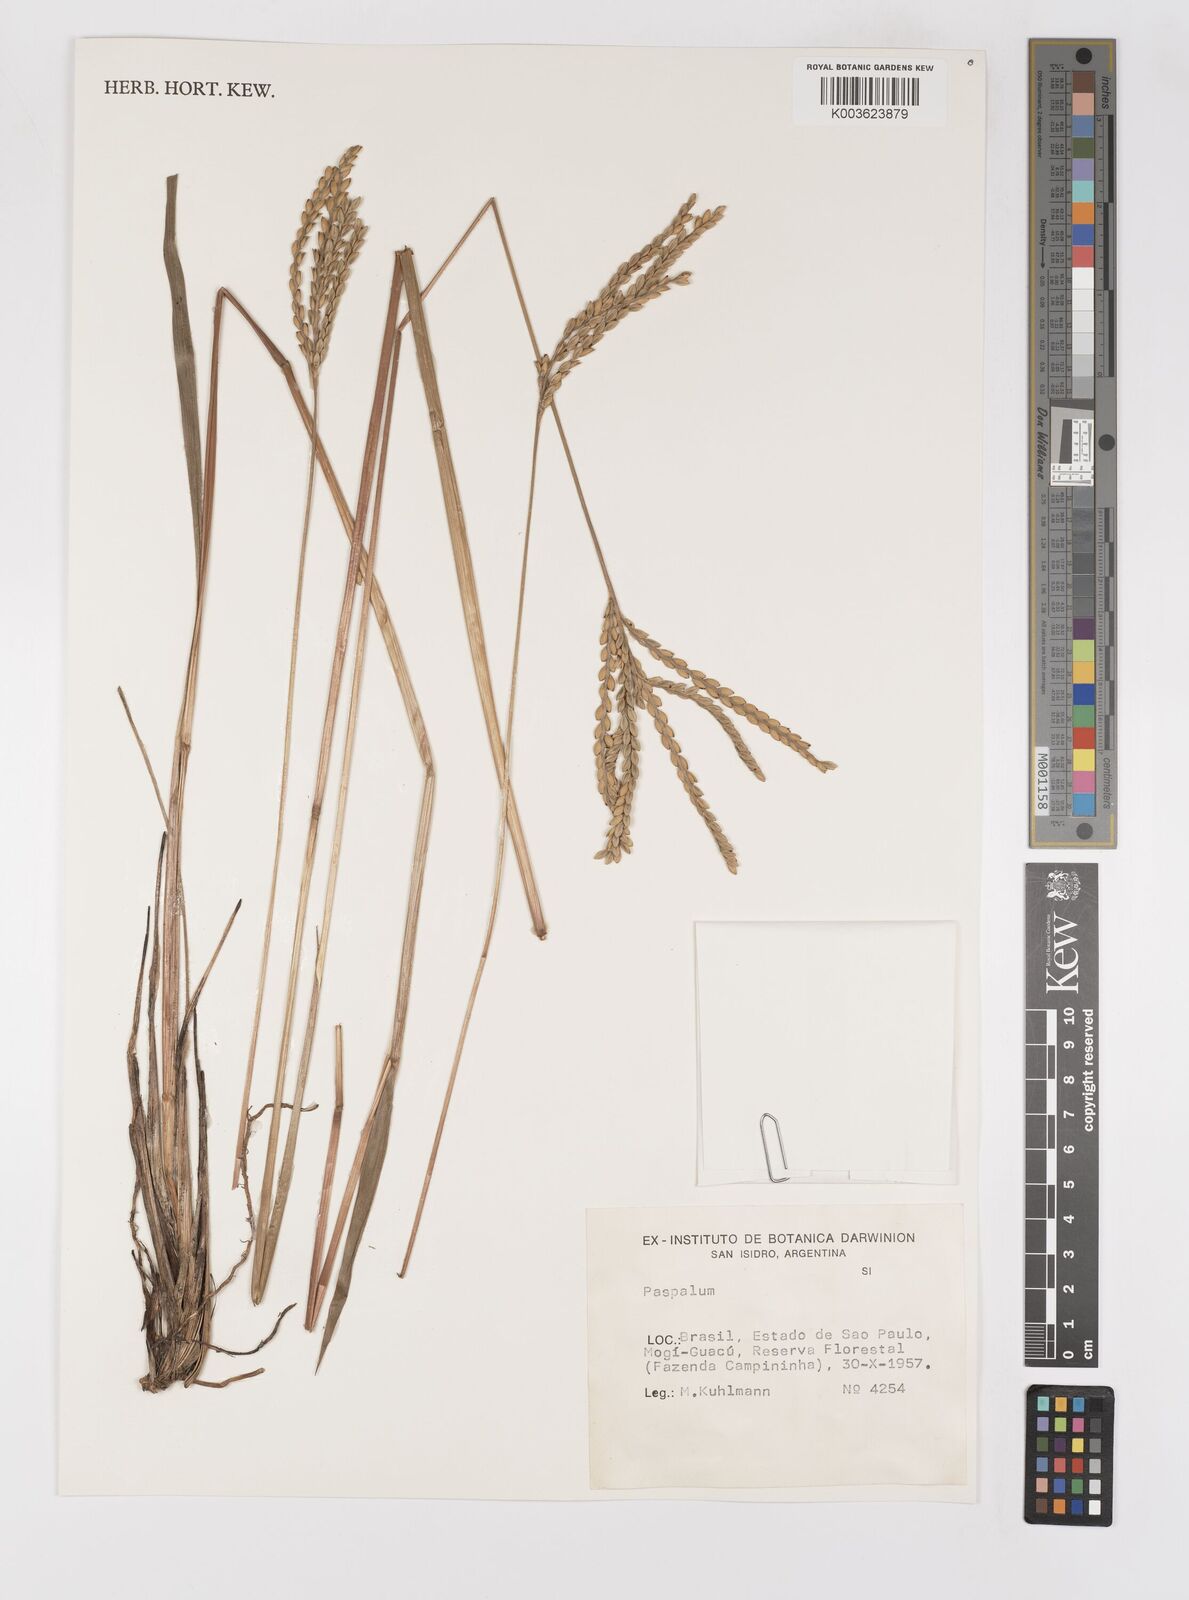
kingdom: Plantae
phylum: Tracheophyta
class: Liliopsida
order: Poales
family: Poaceae
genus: Paspalum
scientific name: Paspalum dedeccae
